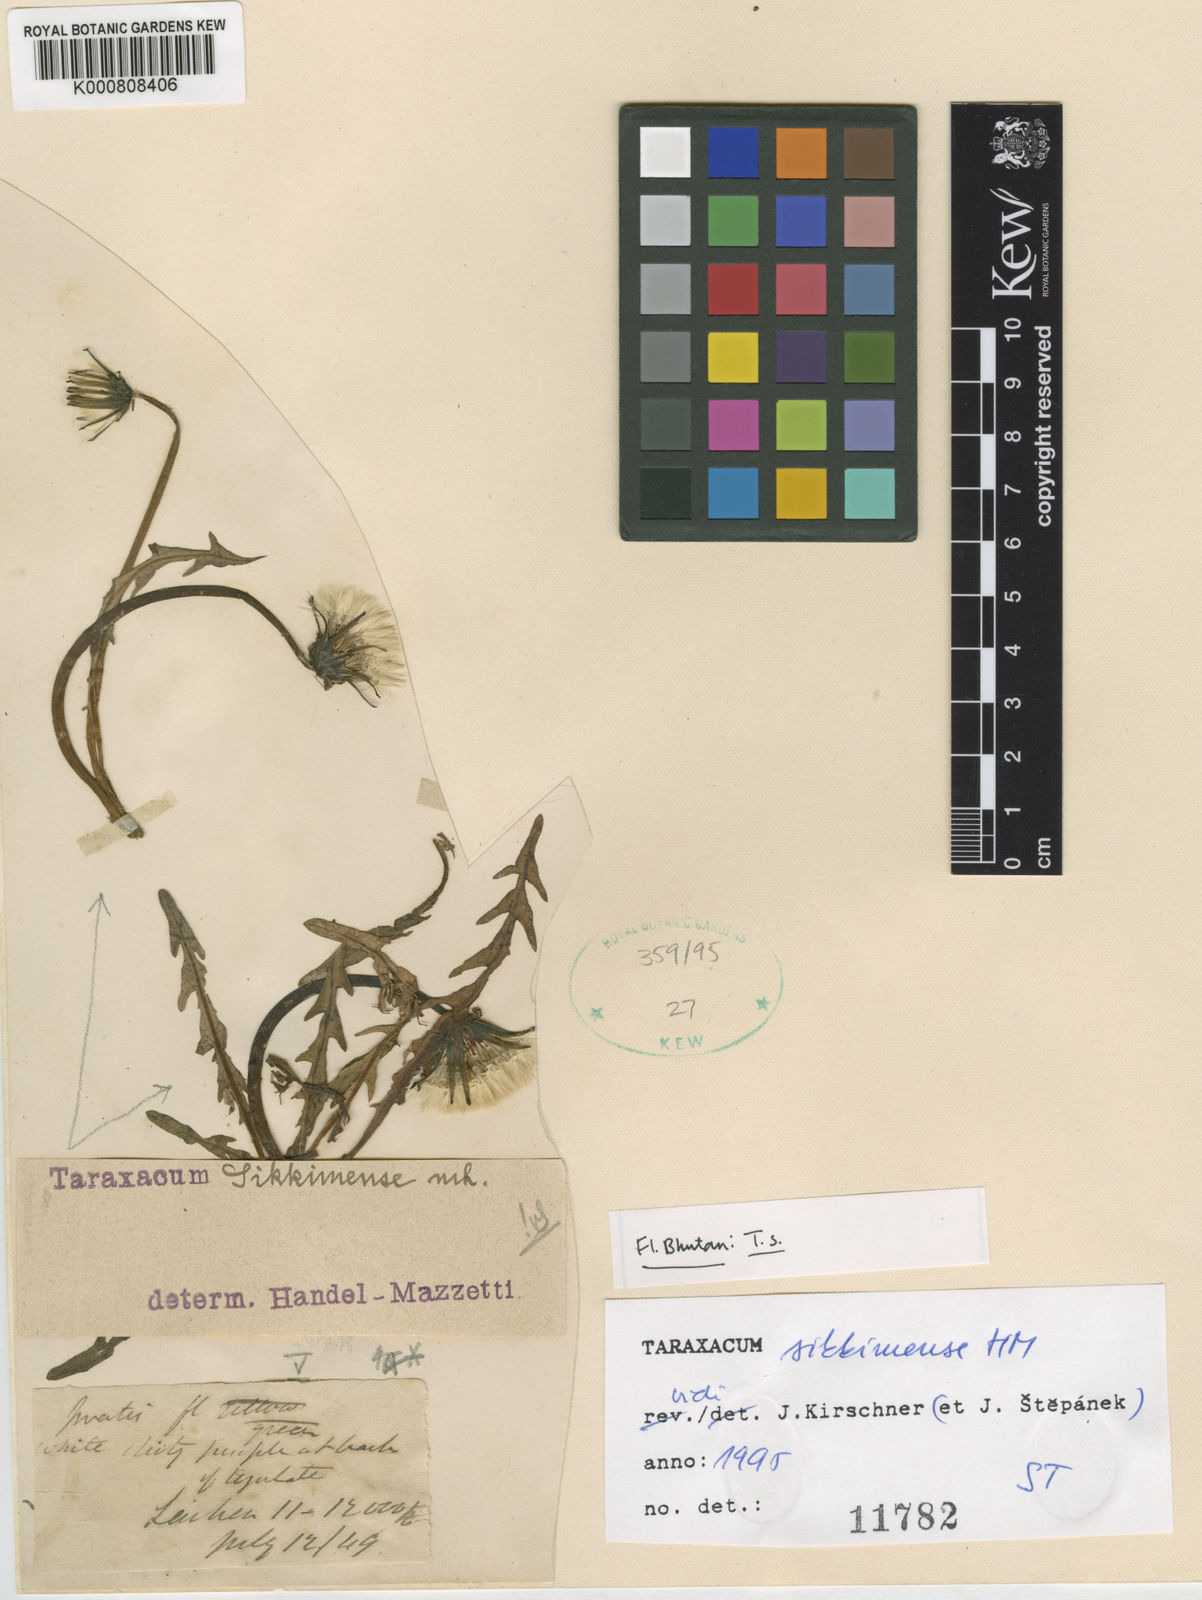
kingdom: Plantae
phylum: Tracheophyta
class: Magnoliopsida
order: Asterales
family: Asteraceae
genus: Taraxacum
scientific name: Taraxacum sikkimense
